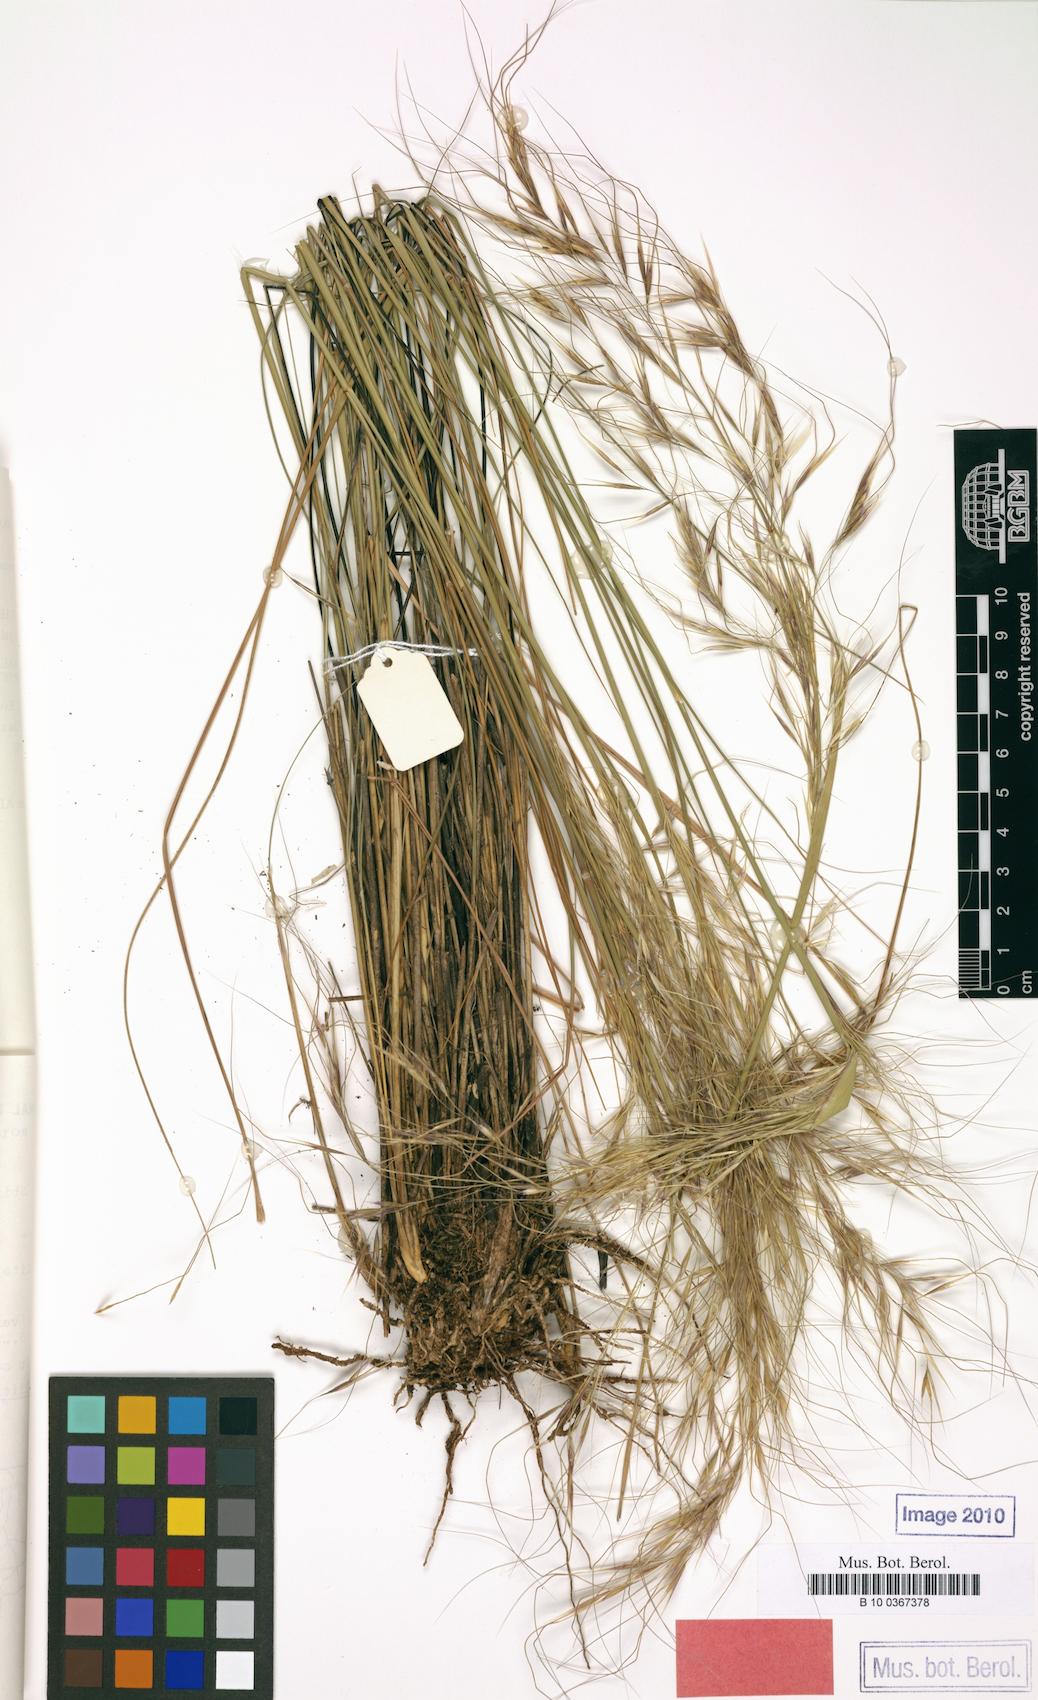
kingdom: Plantae
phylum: Tracheophyta
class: Liliopsida
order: Poales
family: Poaceae
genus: Austrostipa
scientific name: Austrostipa metatoris
